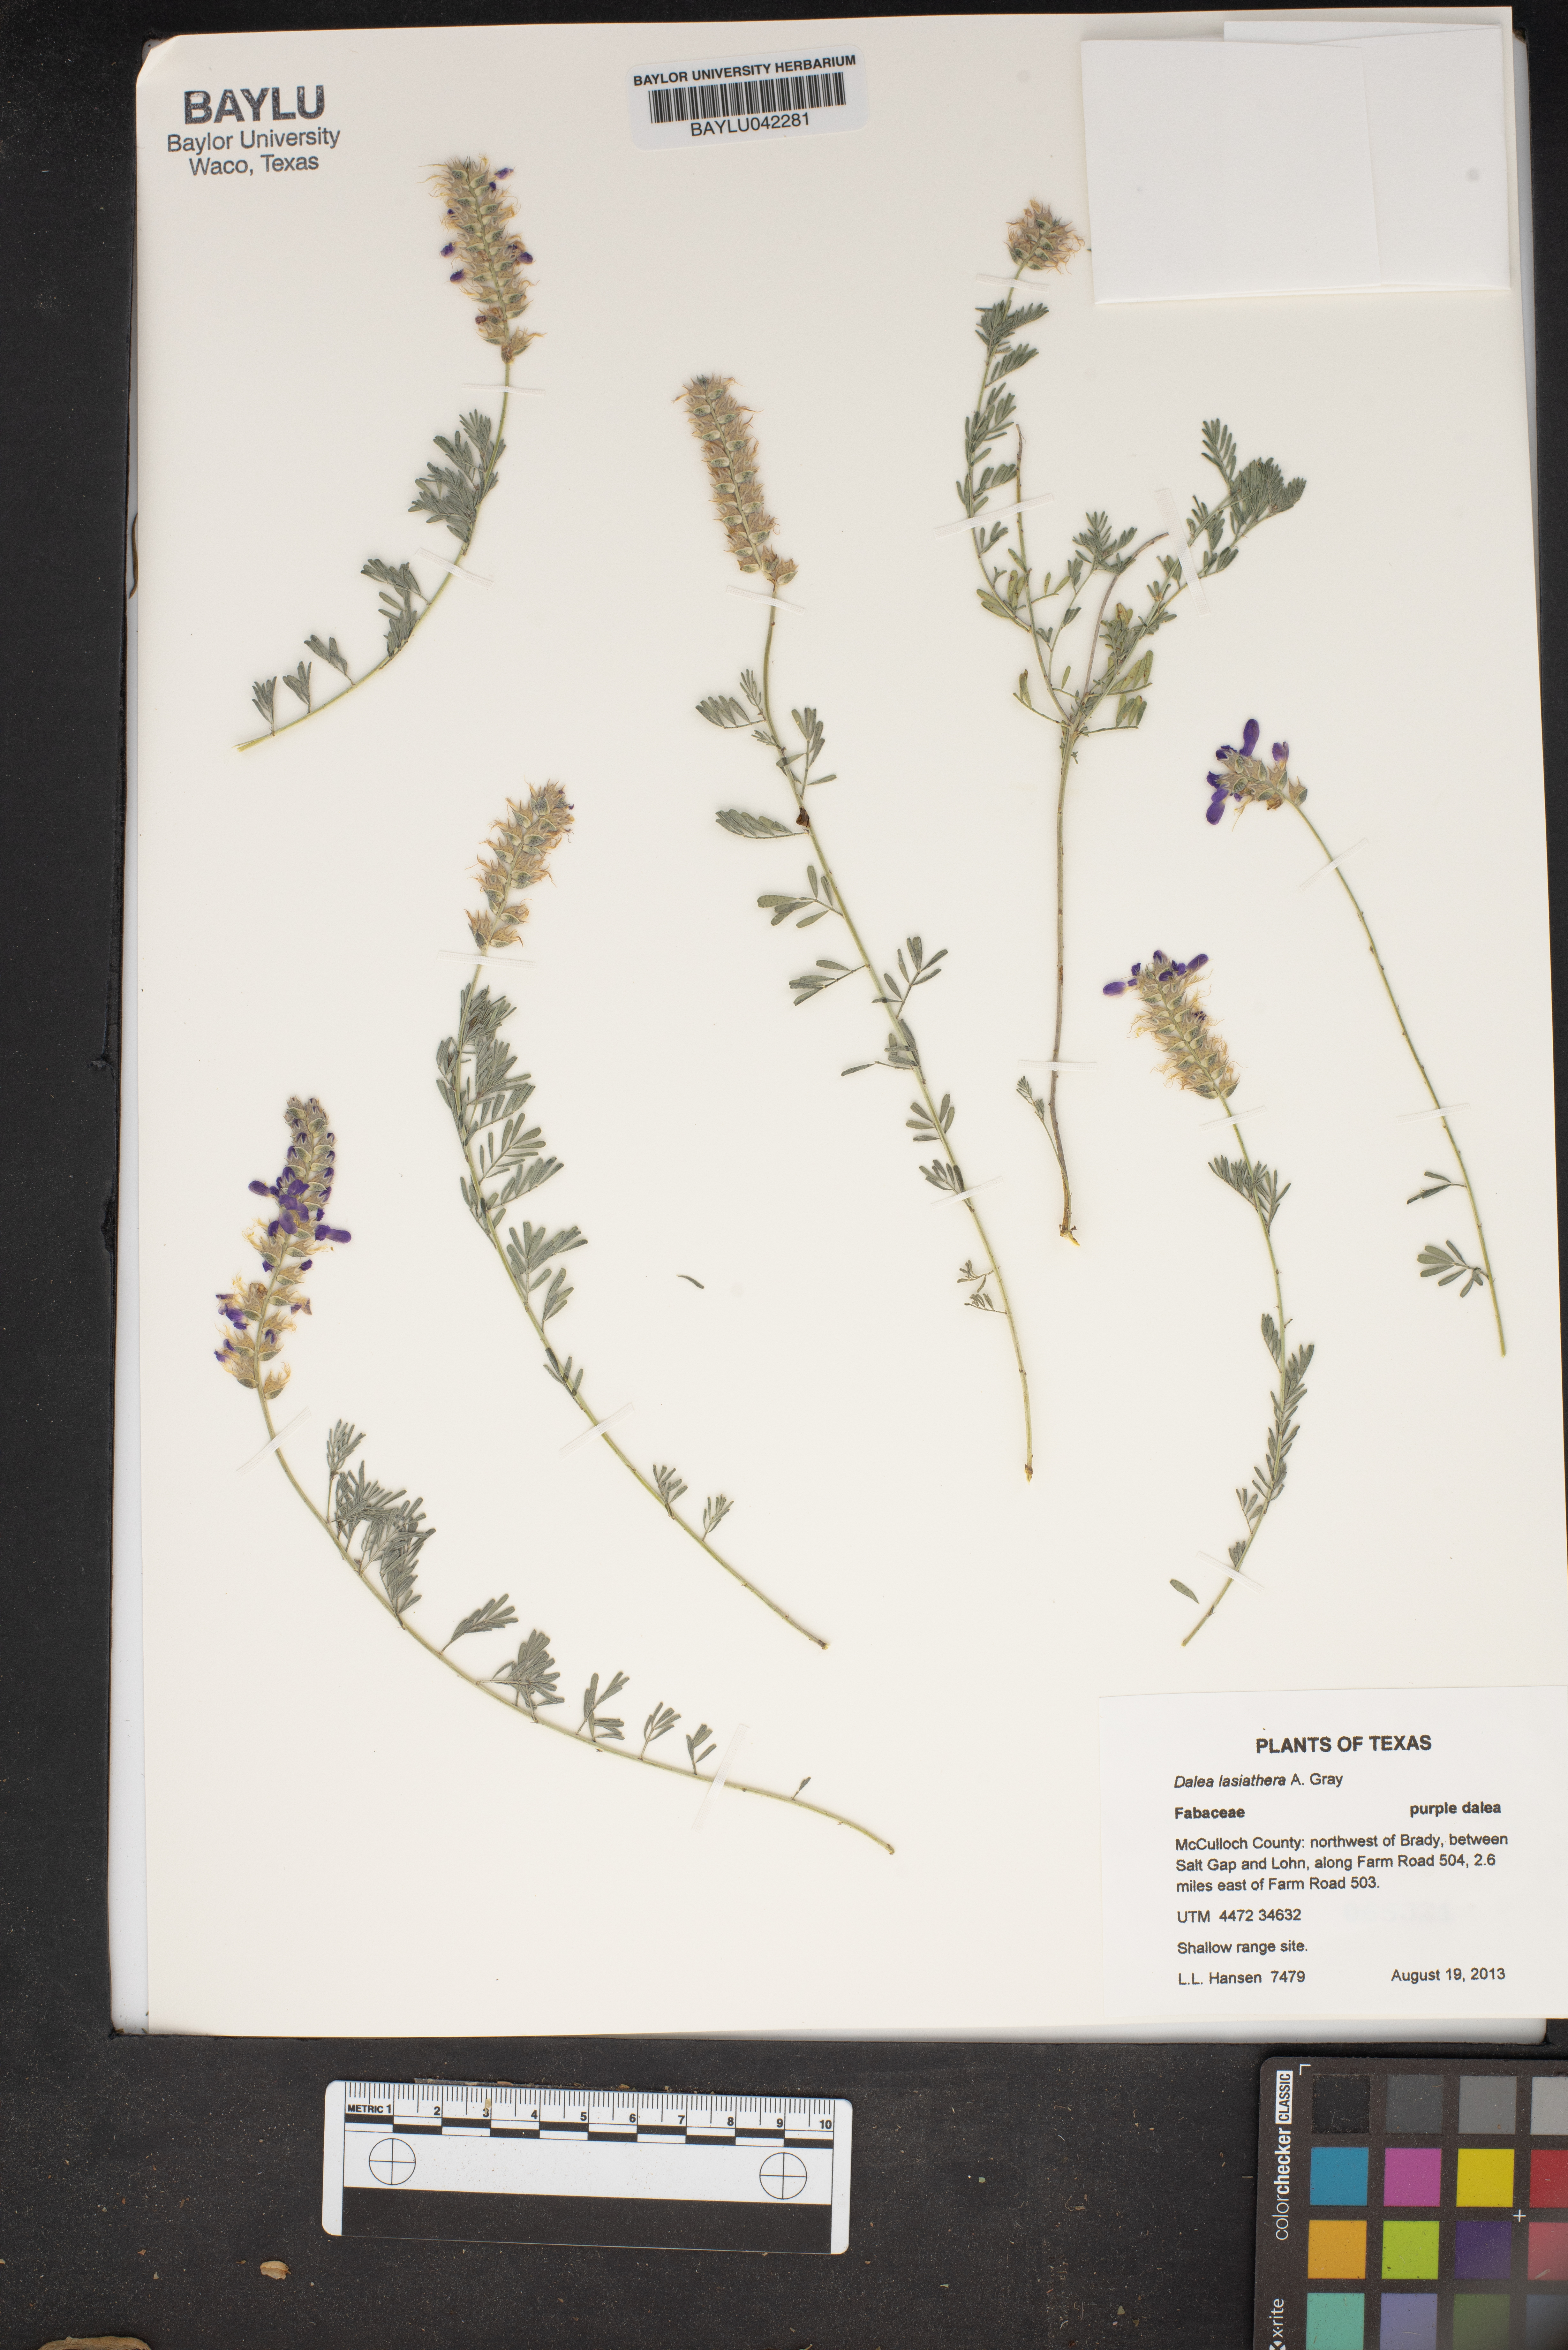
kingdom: Plantae
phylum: Tracheophyta
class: Magnoliopsida
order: Fabales
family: Fabaceae
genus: Dalea
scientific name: Dalea lasiathera
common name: Purple prairie-clover
